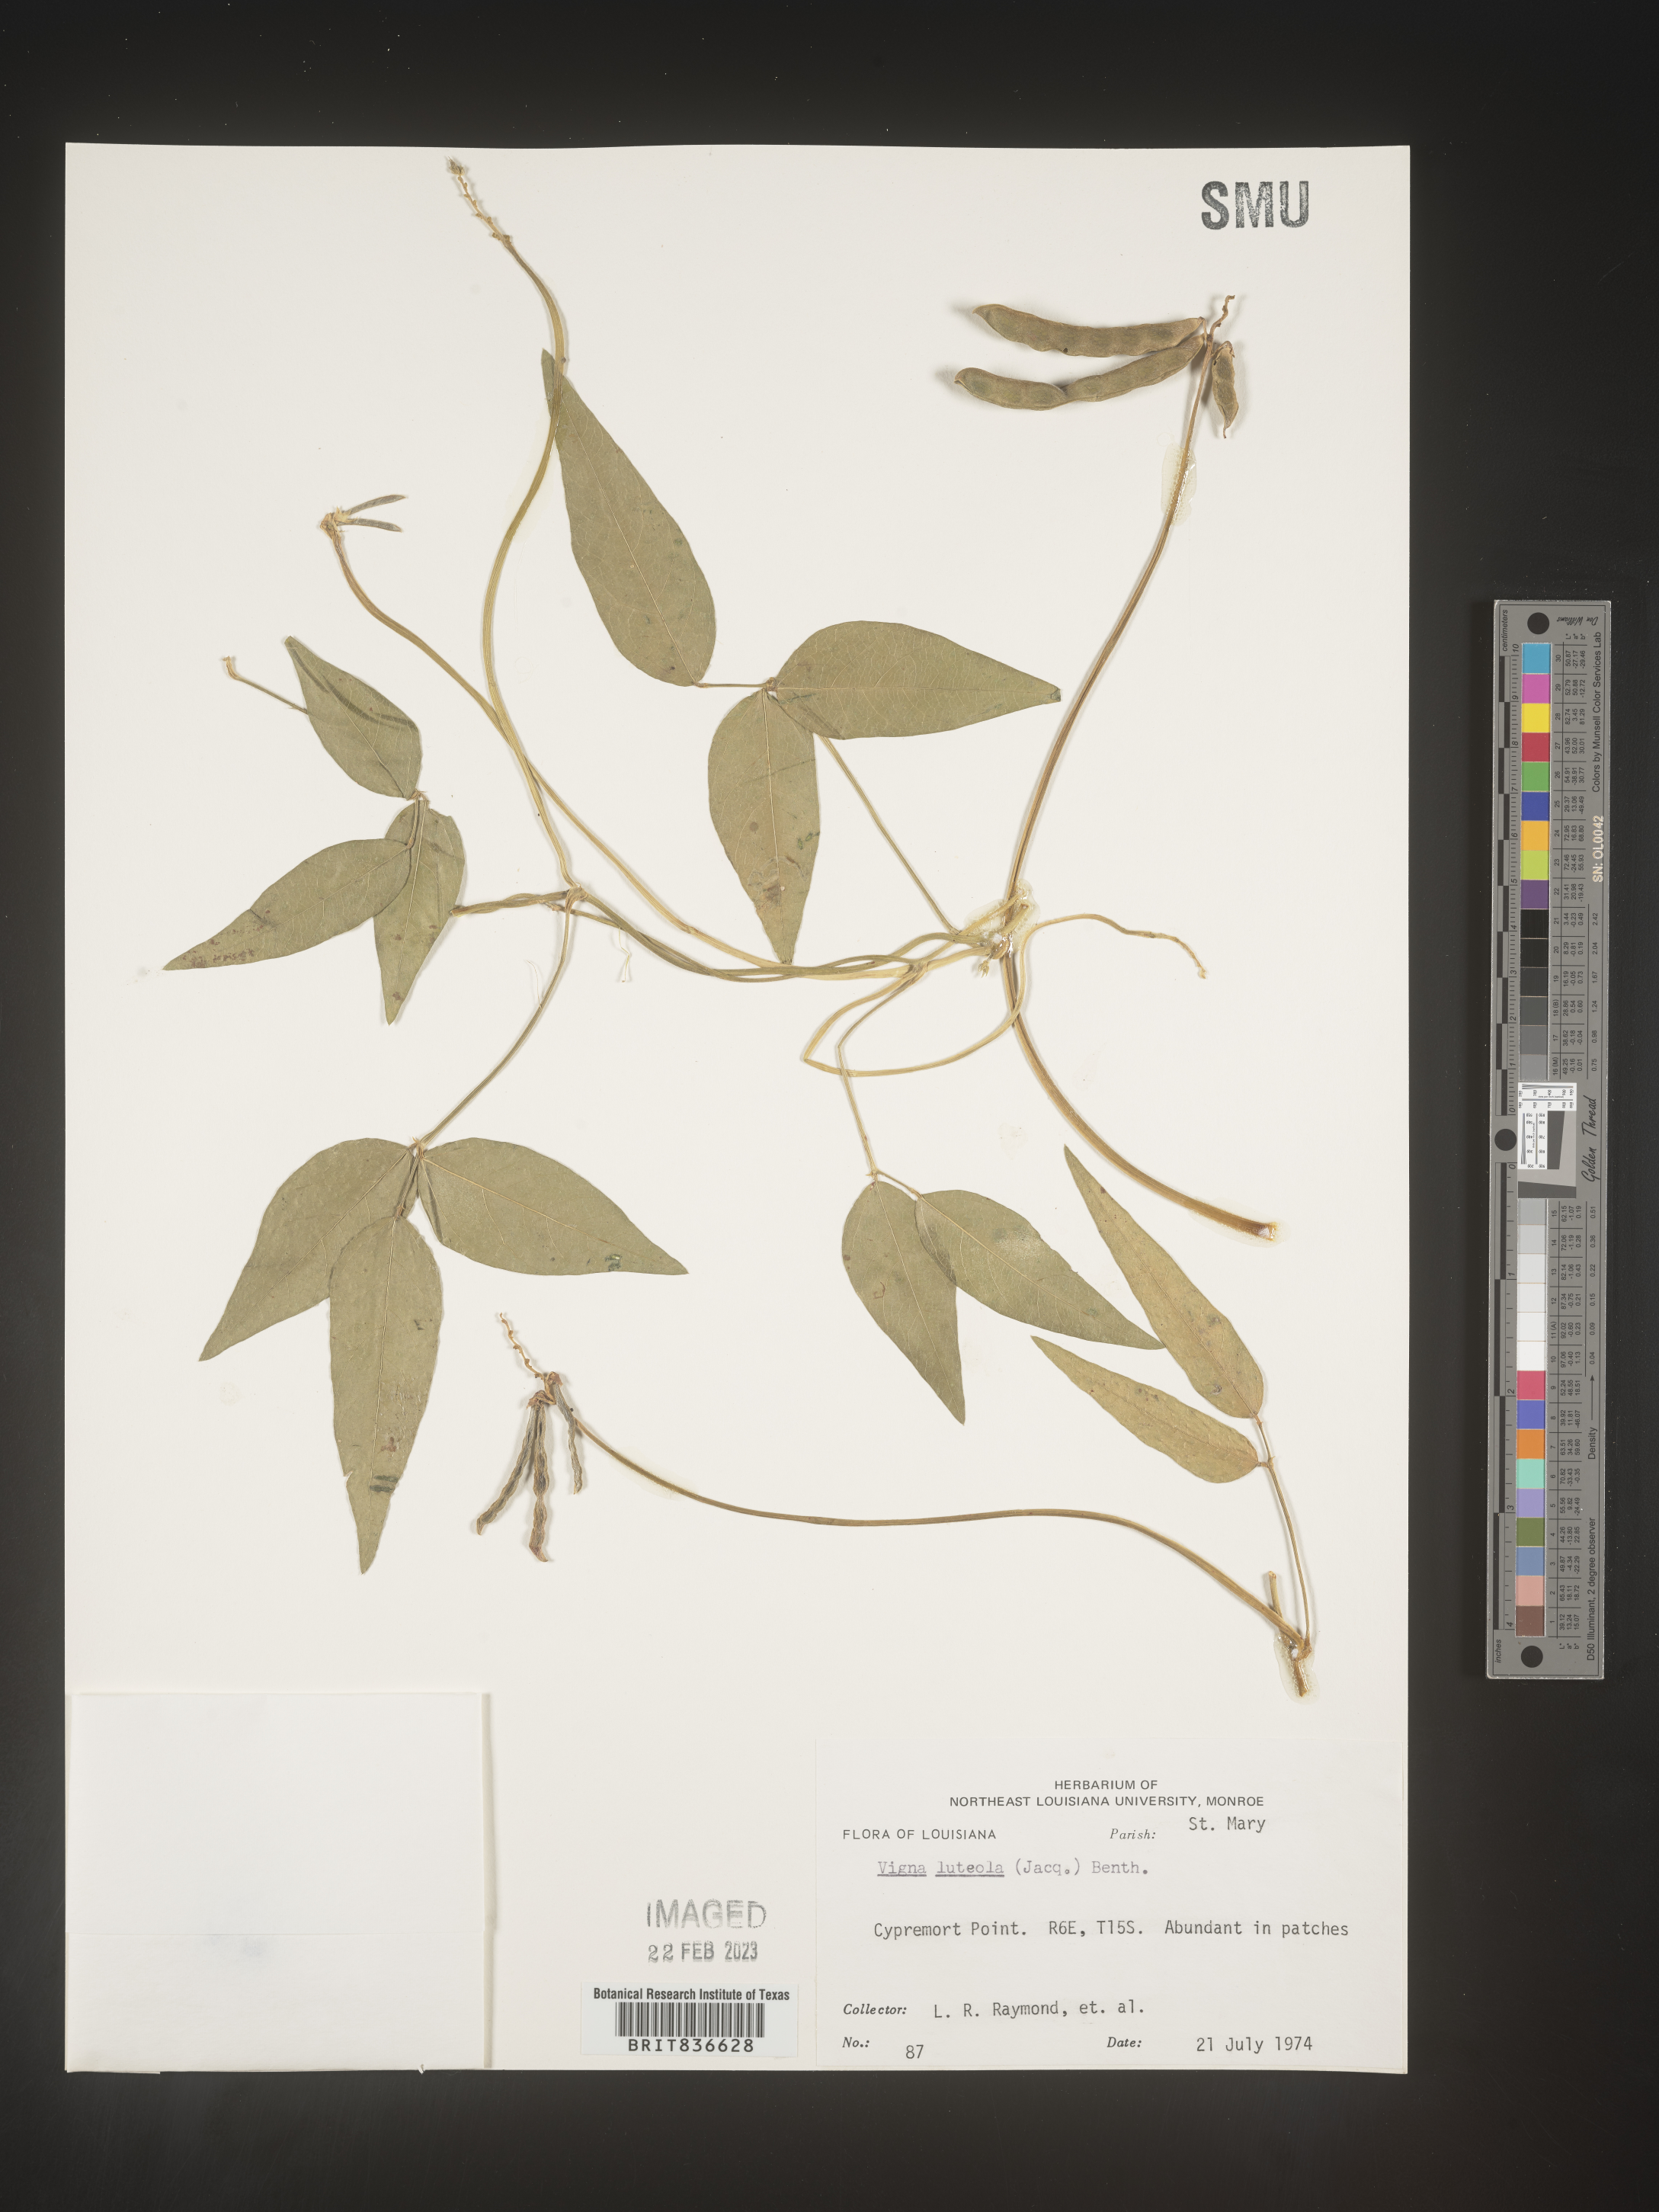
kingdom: Plantae
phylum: Tracheophyta
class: Magnoliopsida
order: Fabales
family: Fabaceae
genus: Vigna
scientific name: Vigna
